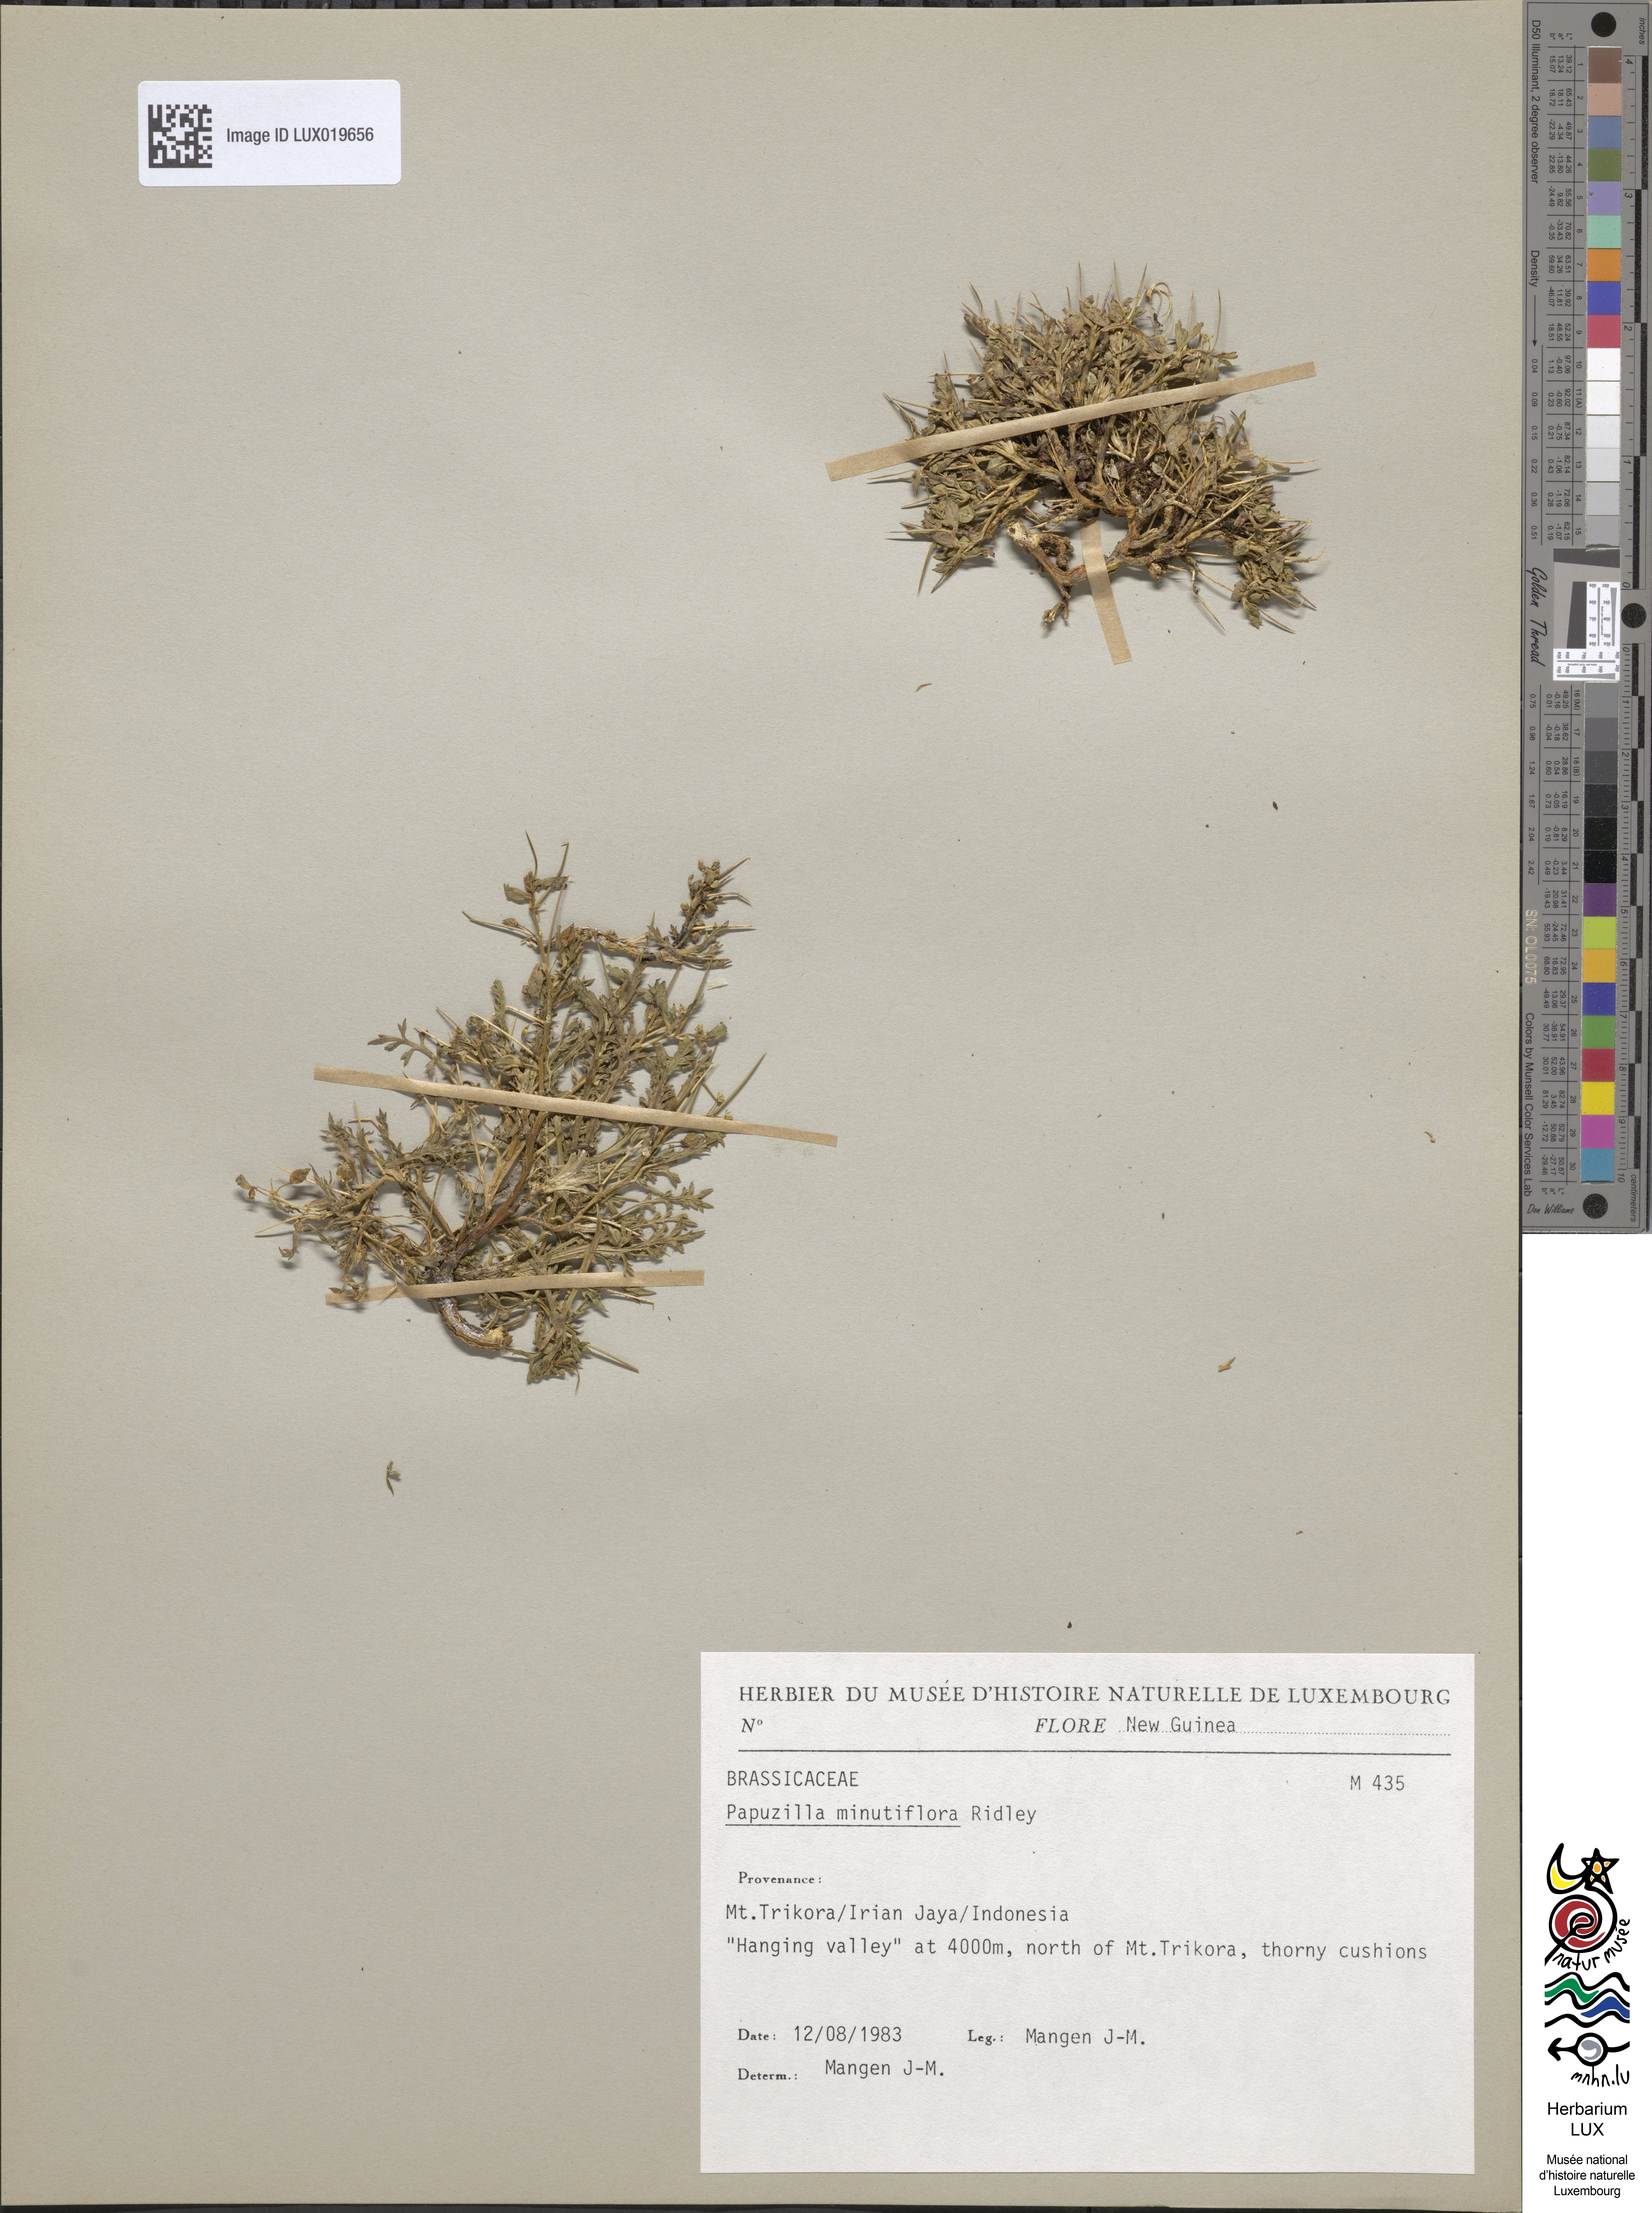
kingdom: Plantae
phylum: Tracheophyta
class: Magnoliopsida
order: Brassicales
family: Brassicaceae
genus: Lepidium
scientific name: Lepidium minutiflorum
